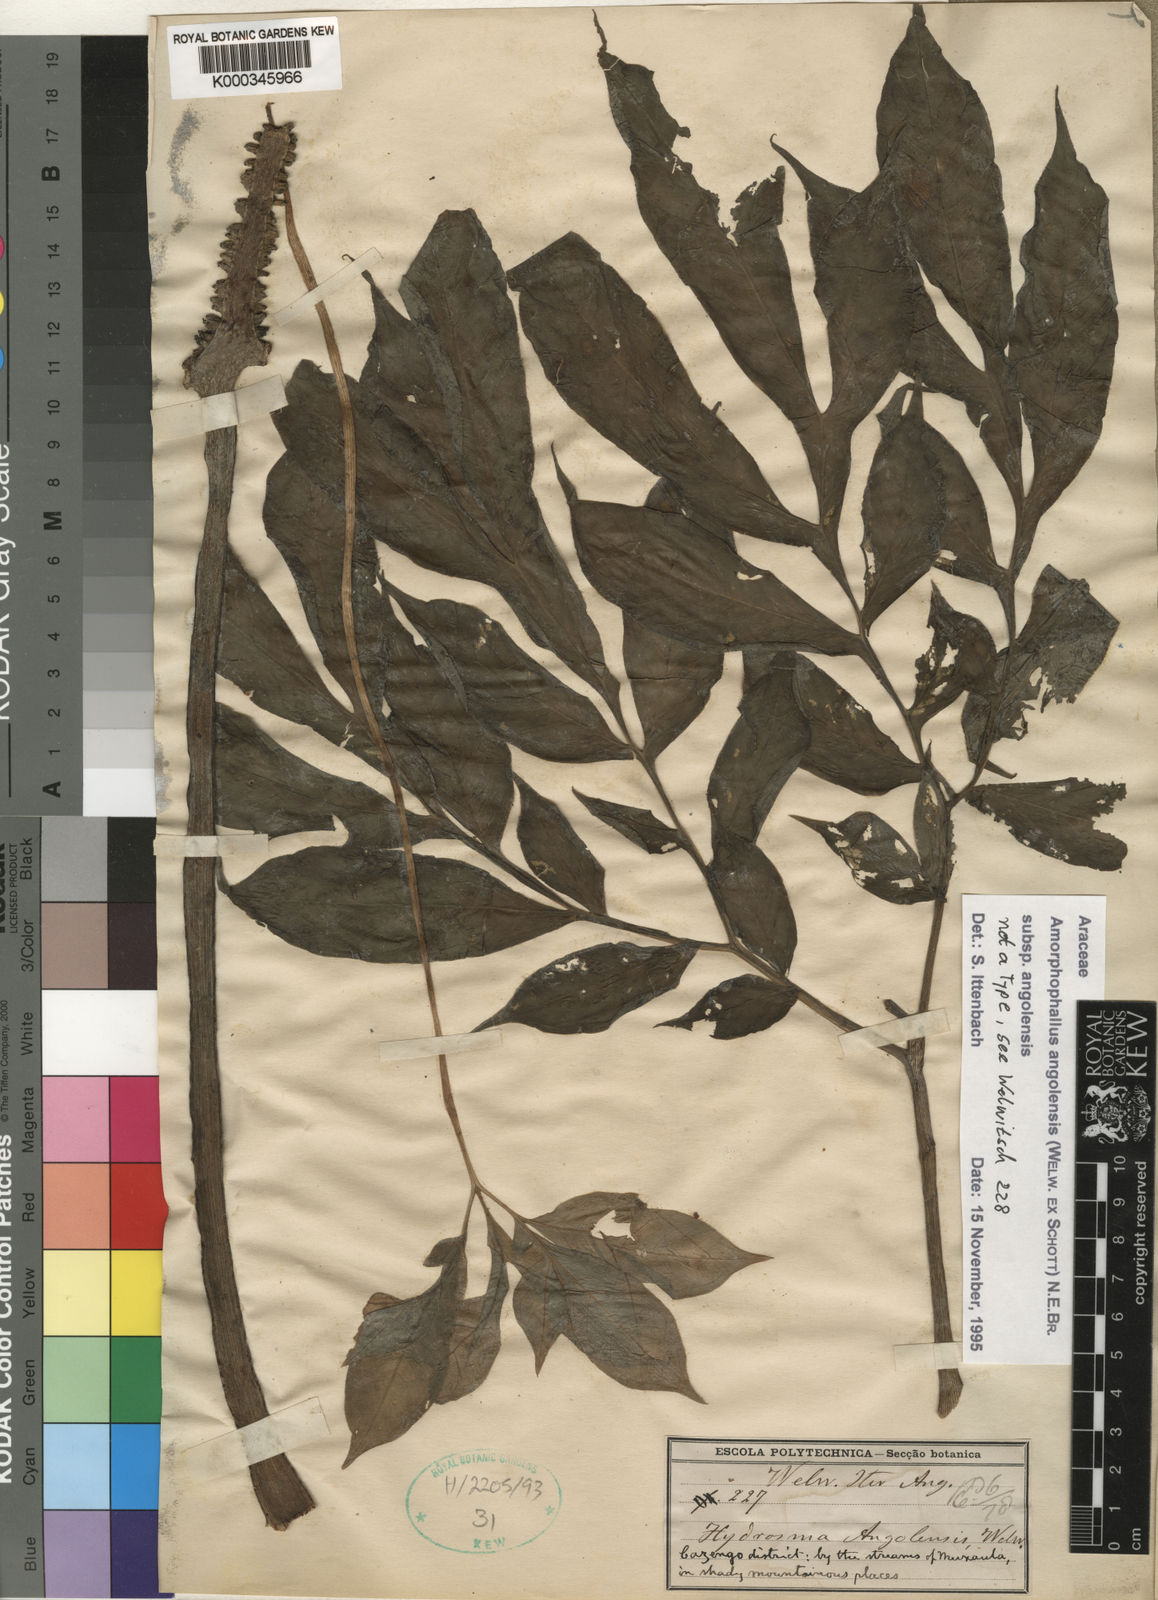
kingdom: Plantae
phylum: Tracheophyta
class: Liliopsida
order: Alismatales
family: Araceae
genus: Amorphophallus
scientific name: Amorphophallus angolensis
